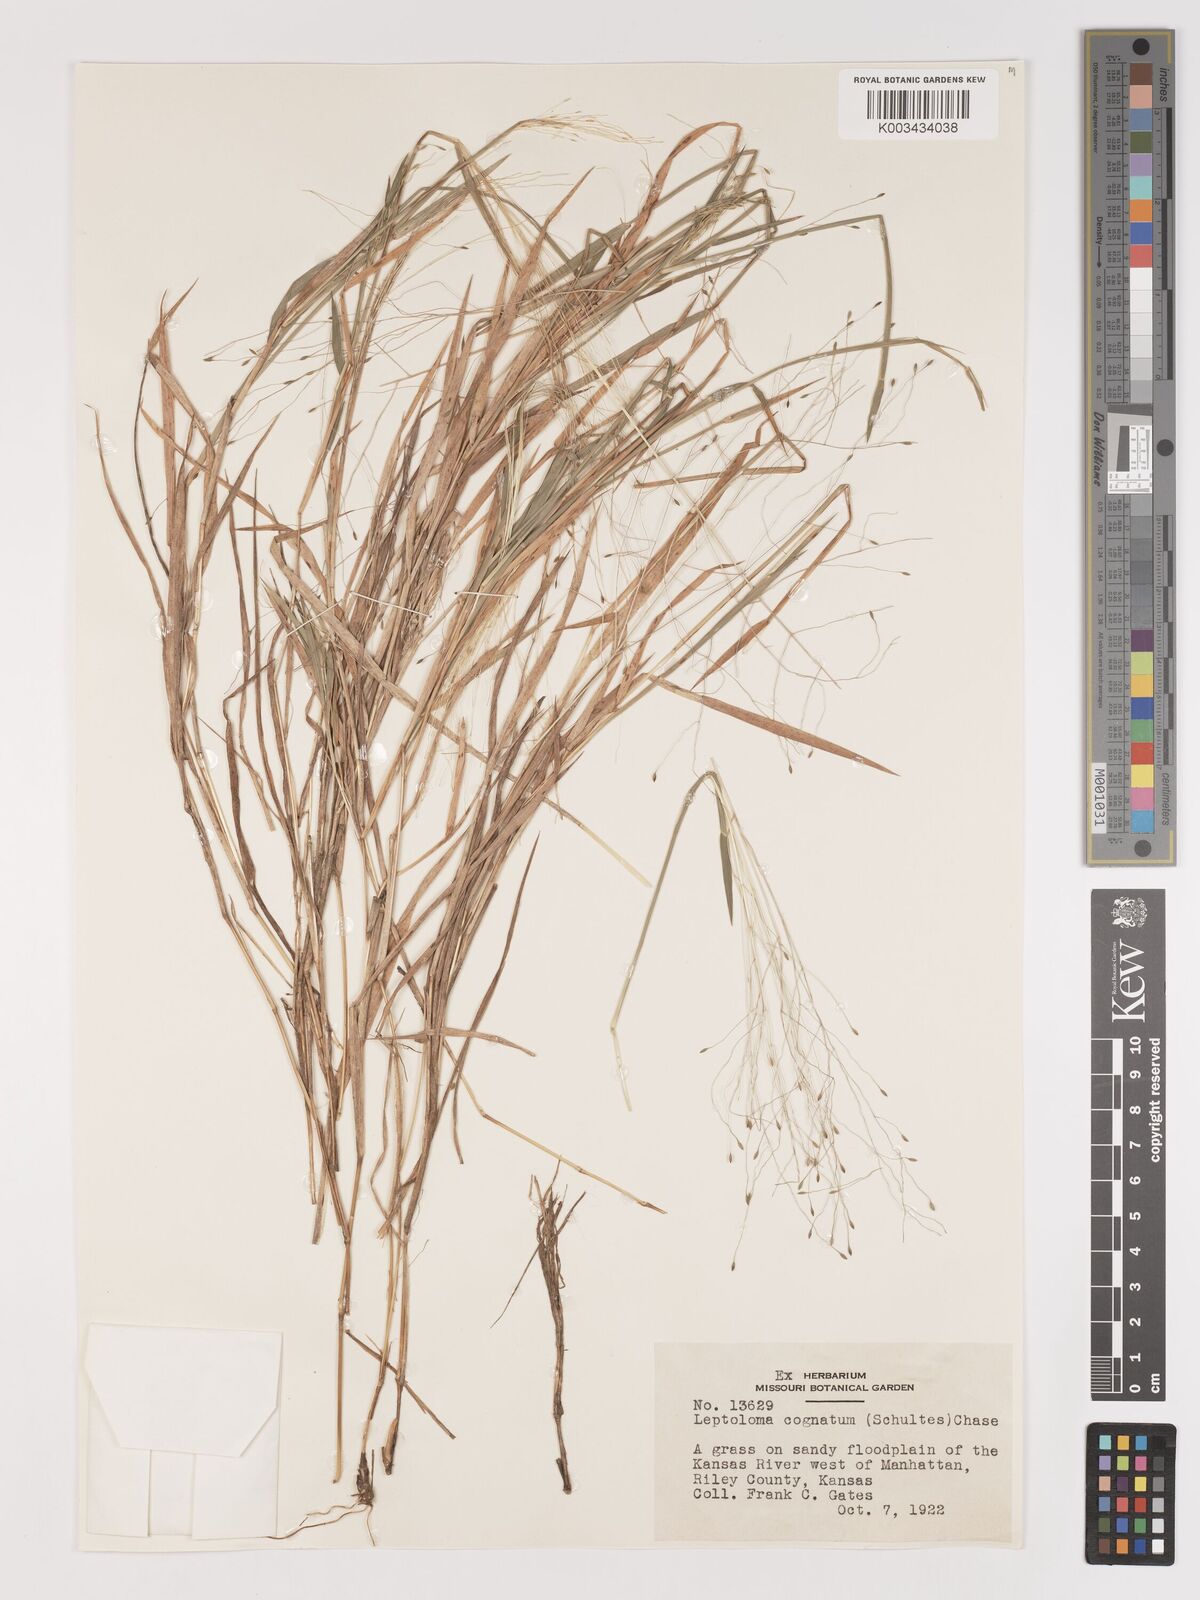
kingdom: Plantae
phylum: Tracheophyta
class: Liliopsida
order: Poales
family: Poaceae
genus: Digitaria
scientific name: Digitaria cognata
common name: Fall witchgrass
